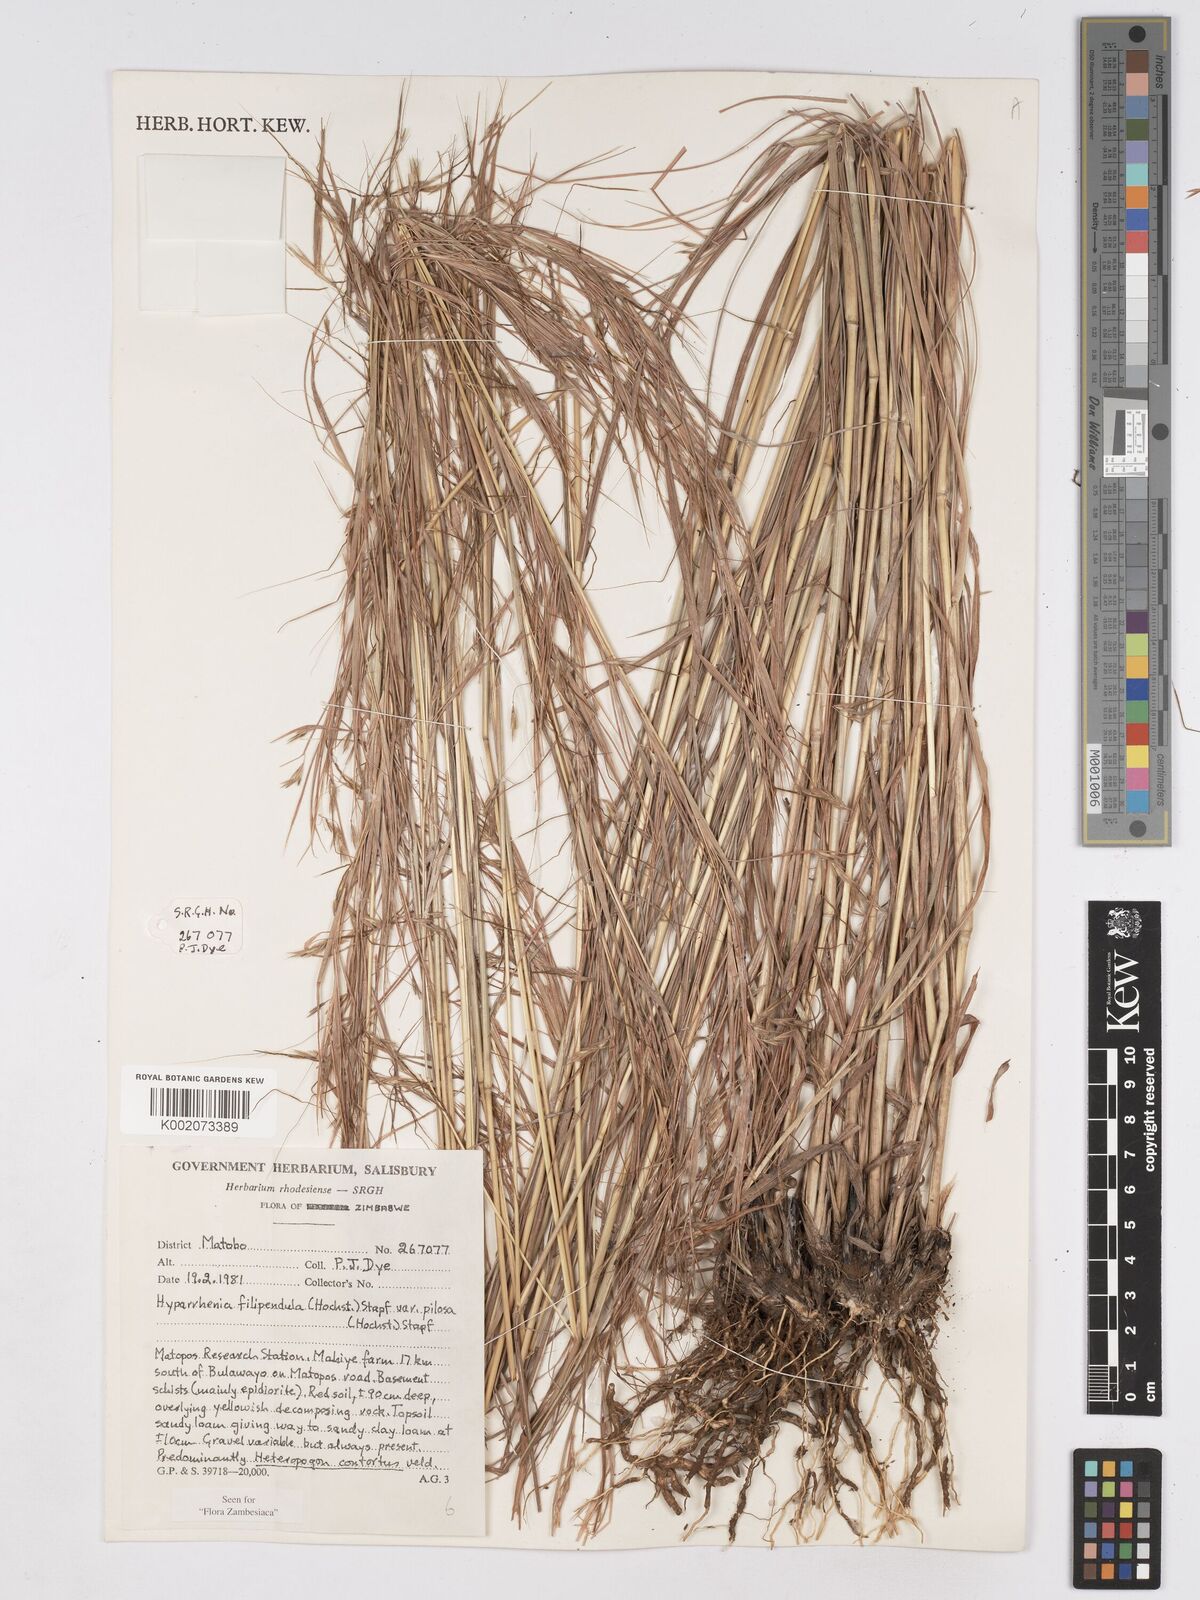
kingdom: Plantae
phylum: Tracheophyta
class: Liliopsida
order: Poales
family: Poaceae
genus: Hyparrhenia
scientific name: Hyparrhenia filipendula
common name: Tambookie grass
